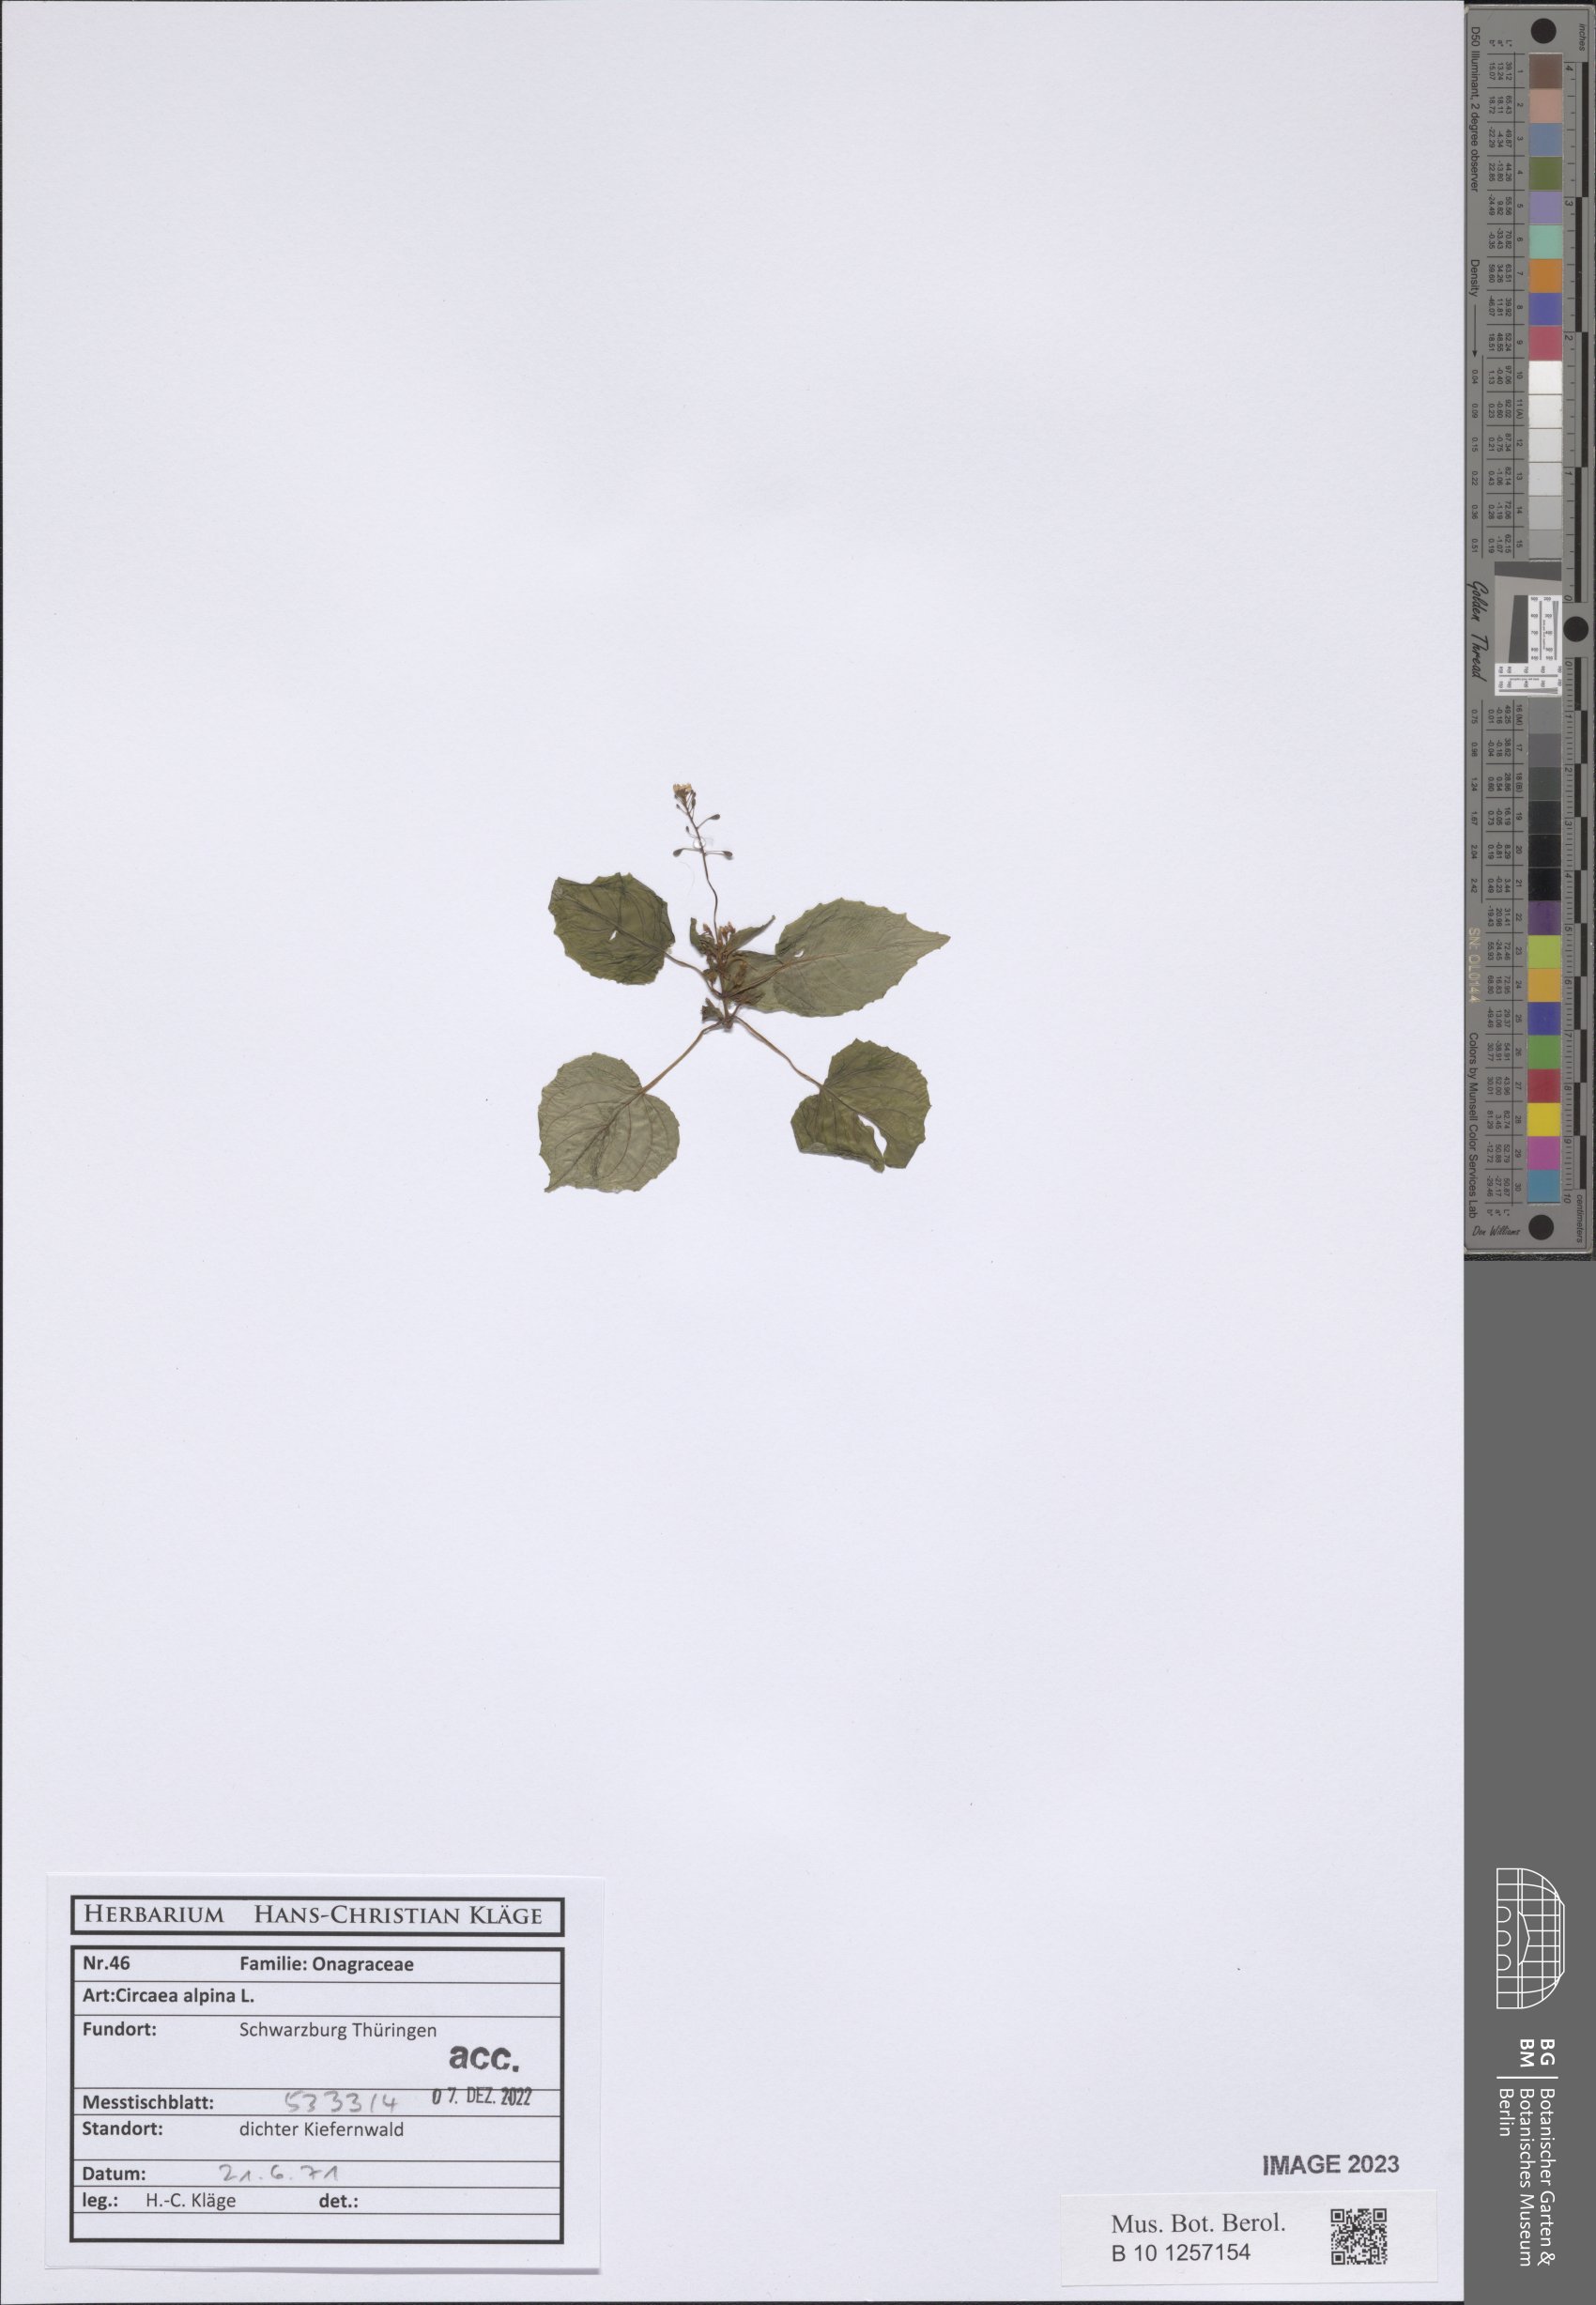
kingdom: Plantae
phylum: Tracheophyta
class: Magnoliopsida
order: Myrtales
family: Onagraceae
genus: Circaea
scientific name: Circaea alpina
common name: Alpine enchanter's-nightshade
